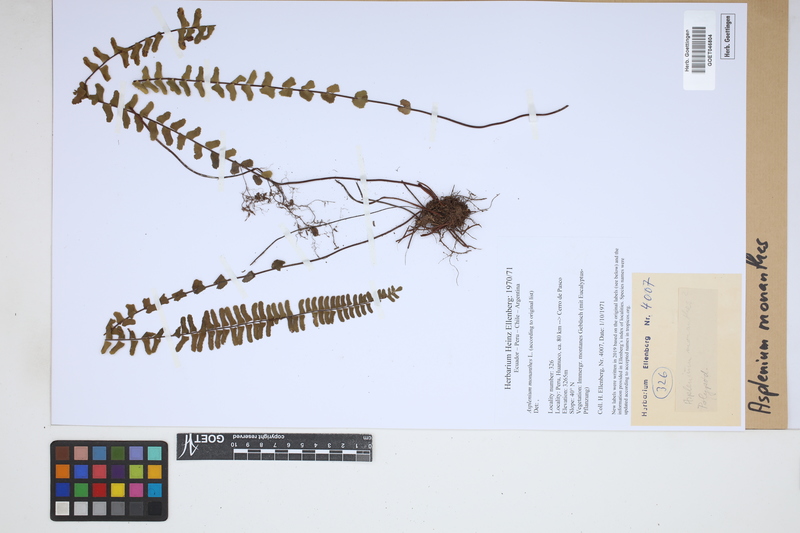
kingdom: Plantae
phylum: Tracheophyta
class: Polypodiopsida
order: Polypodiales
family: Aspleniaceae
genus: Asplenium
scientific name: Asplenium monanthes
